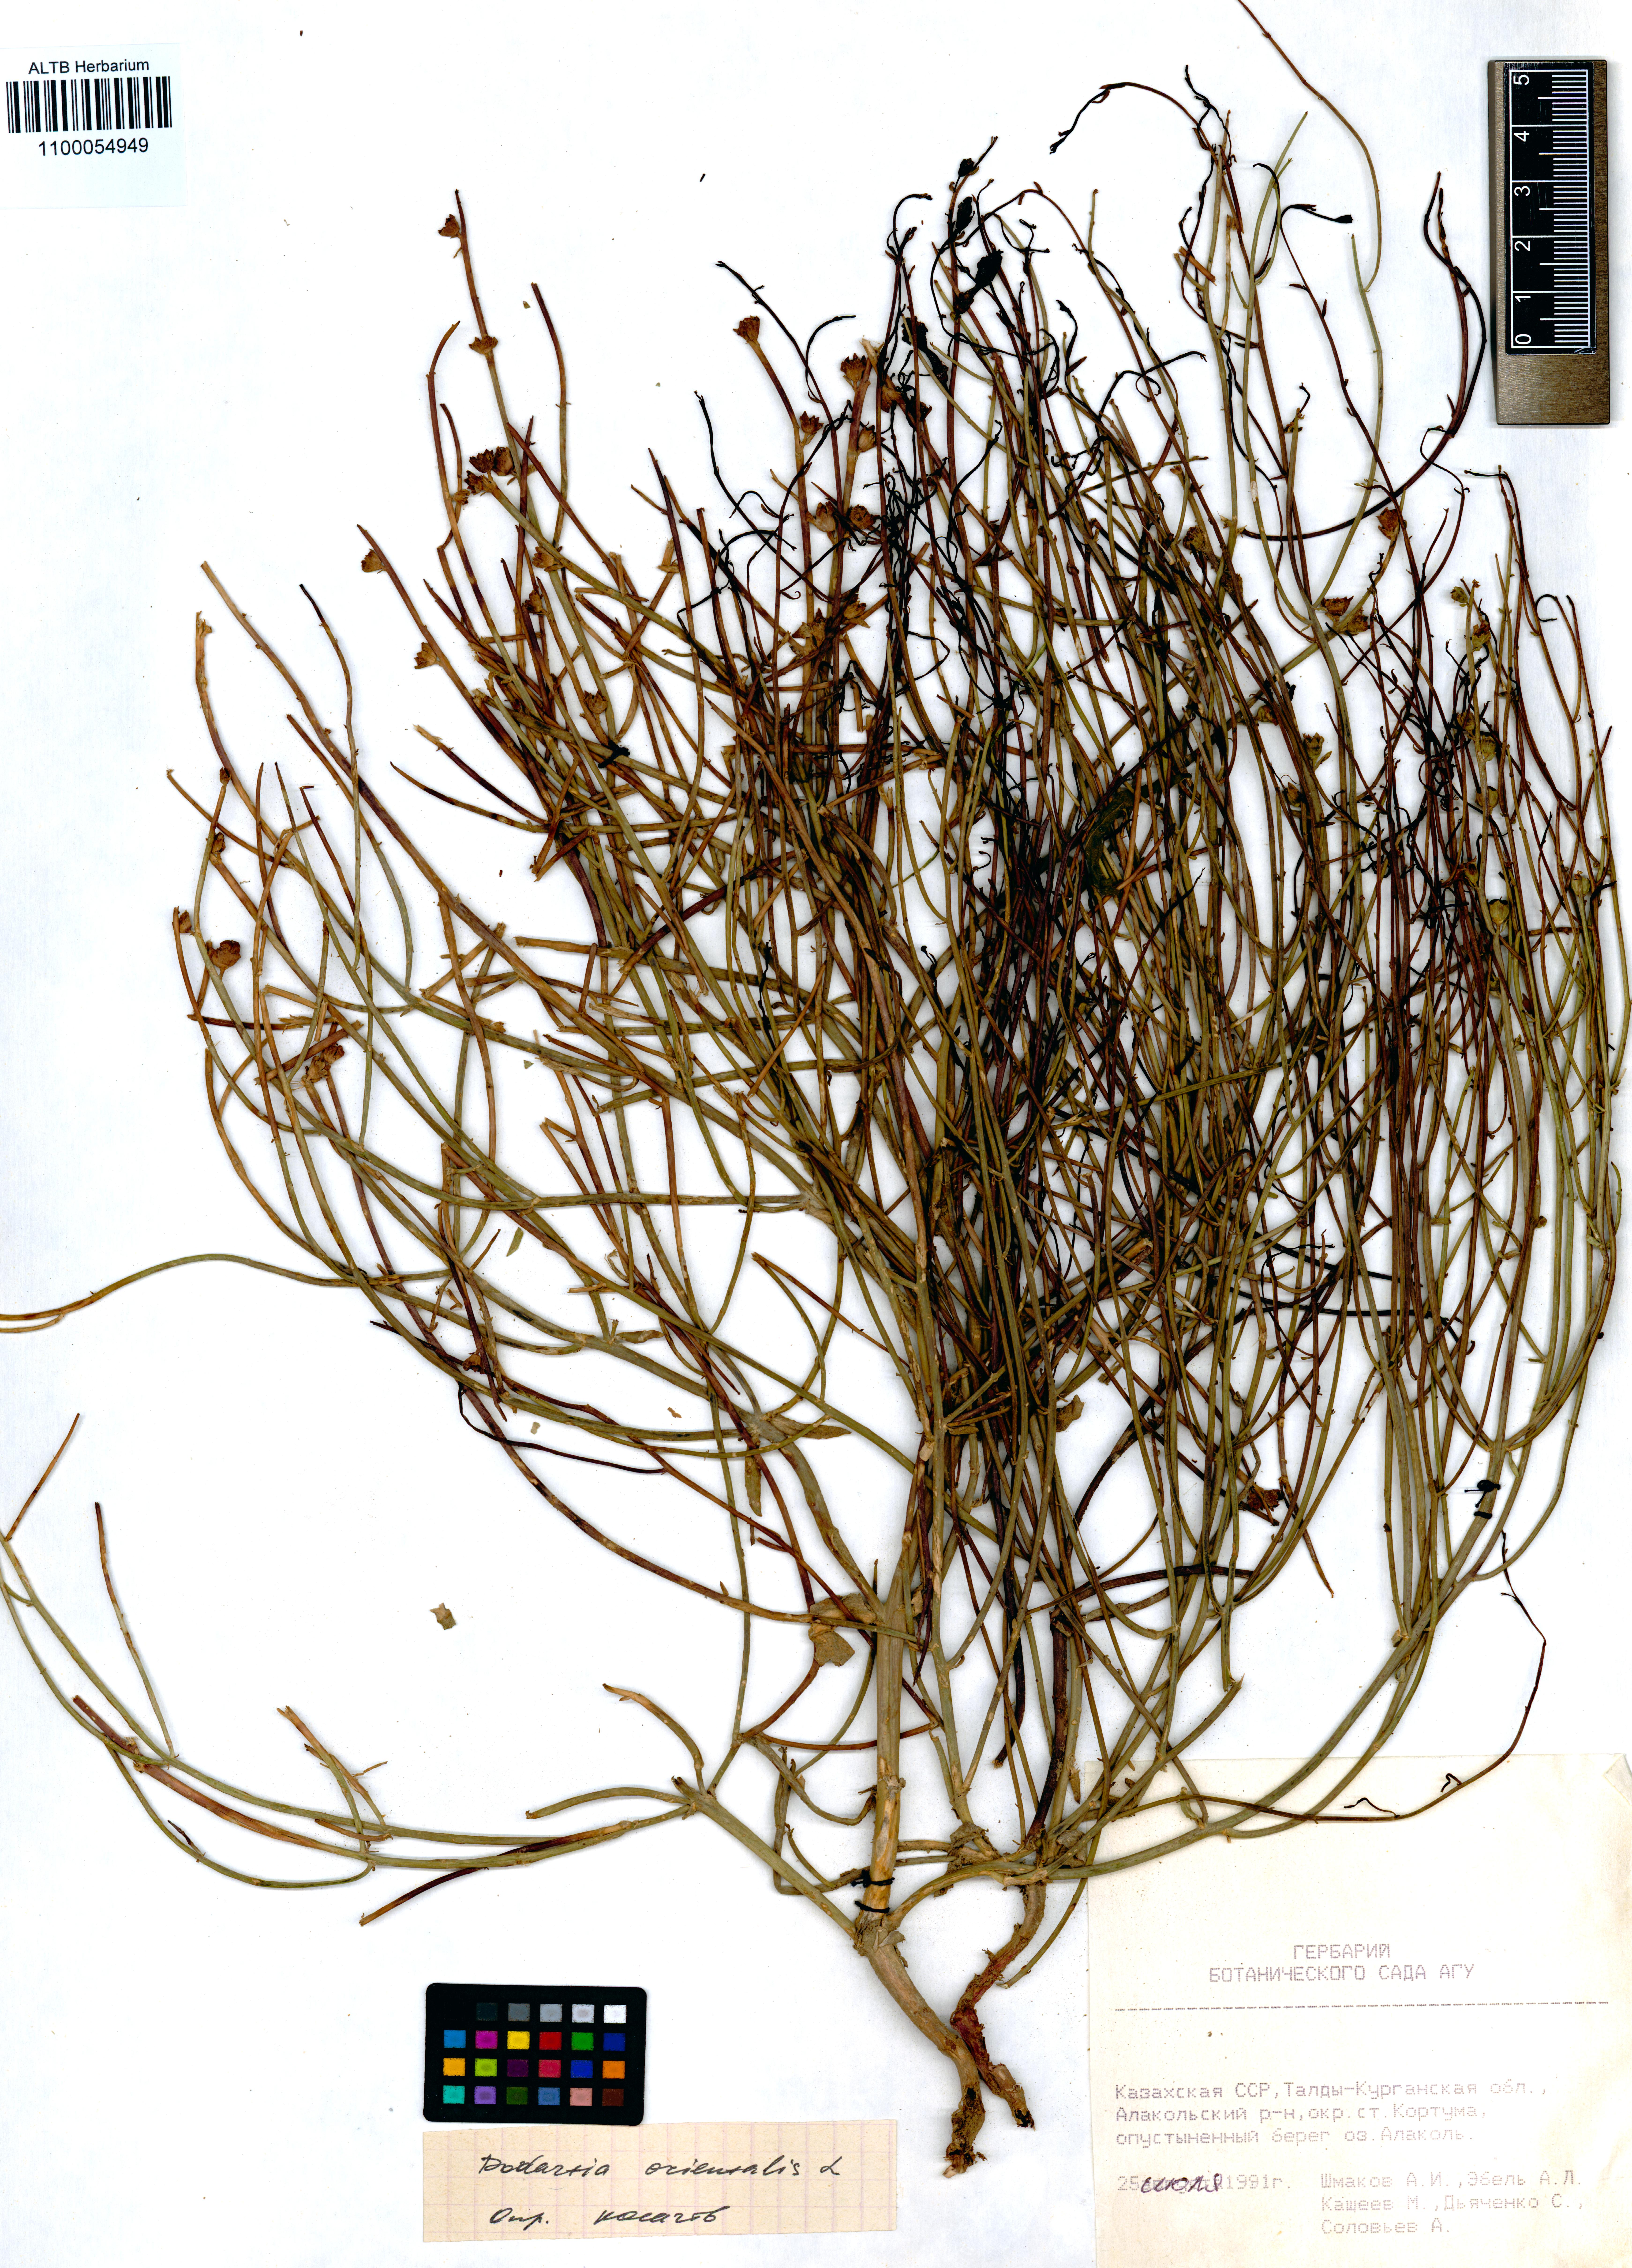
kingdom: Plantae
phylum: Tracheophyta
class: Magnoliopsida
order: Lamiales
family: Mazaceae
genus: Dodartia
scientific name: Dodartia orientalis
